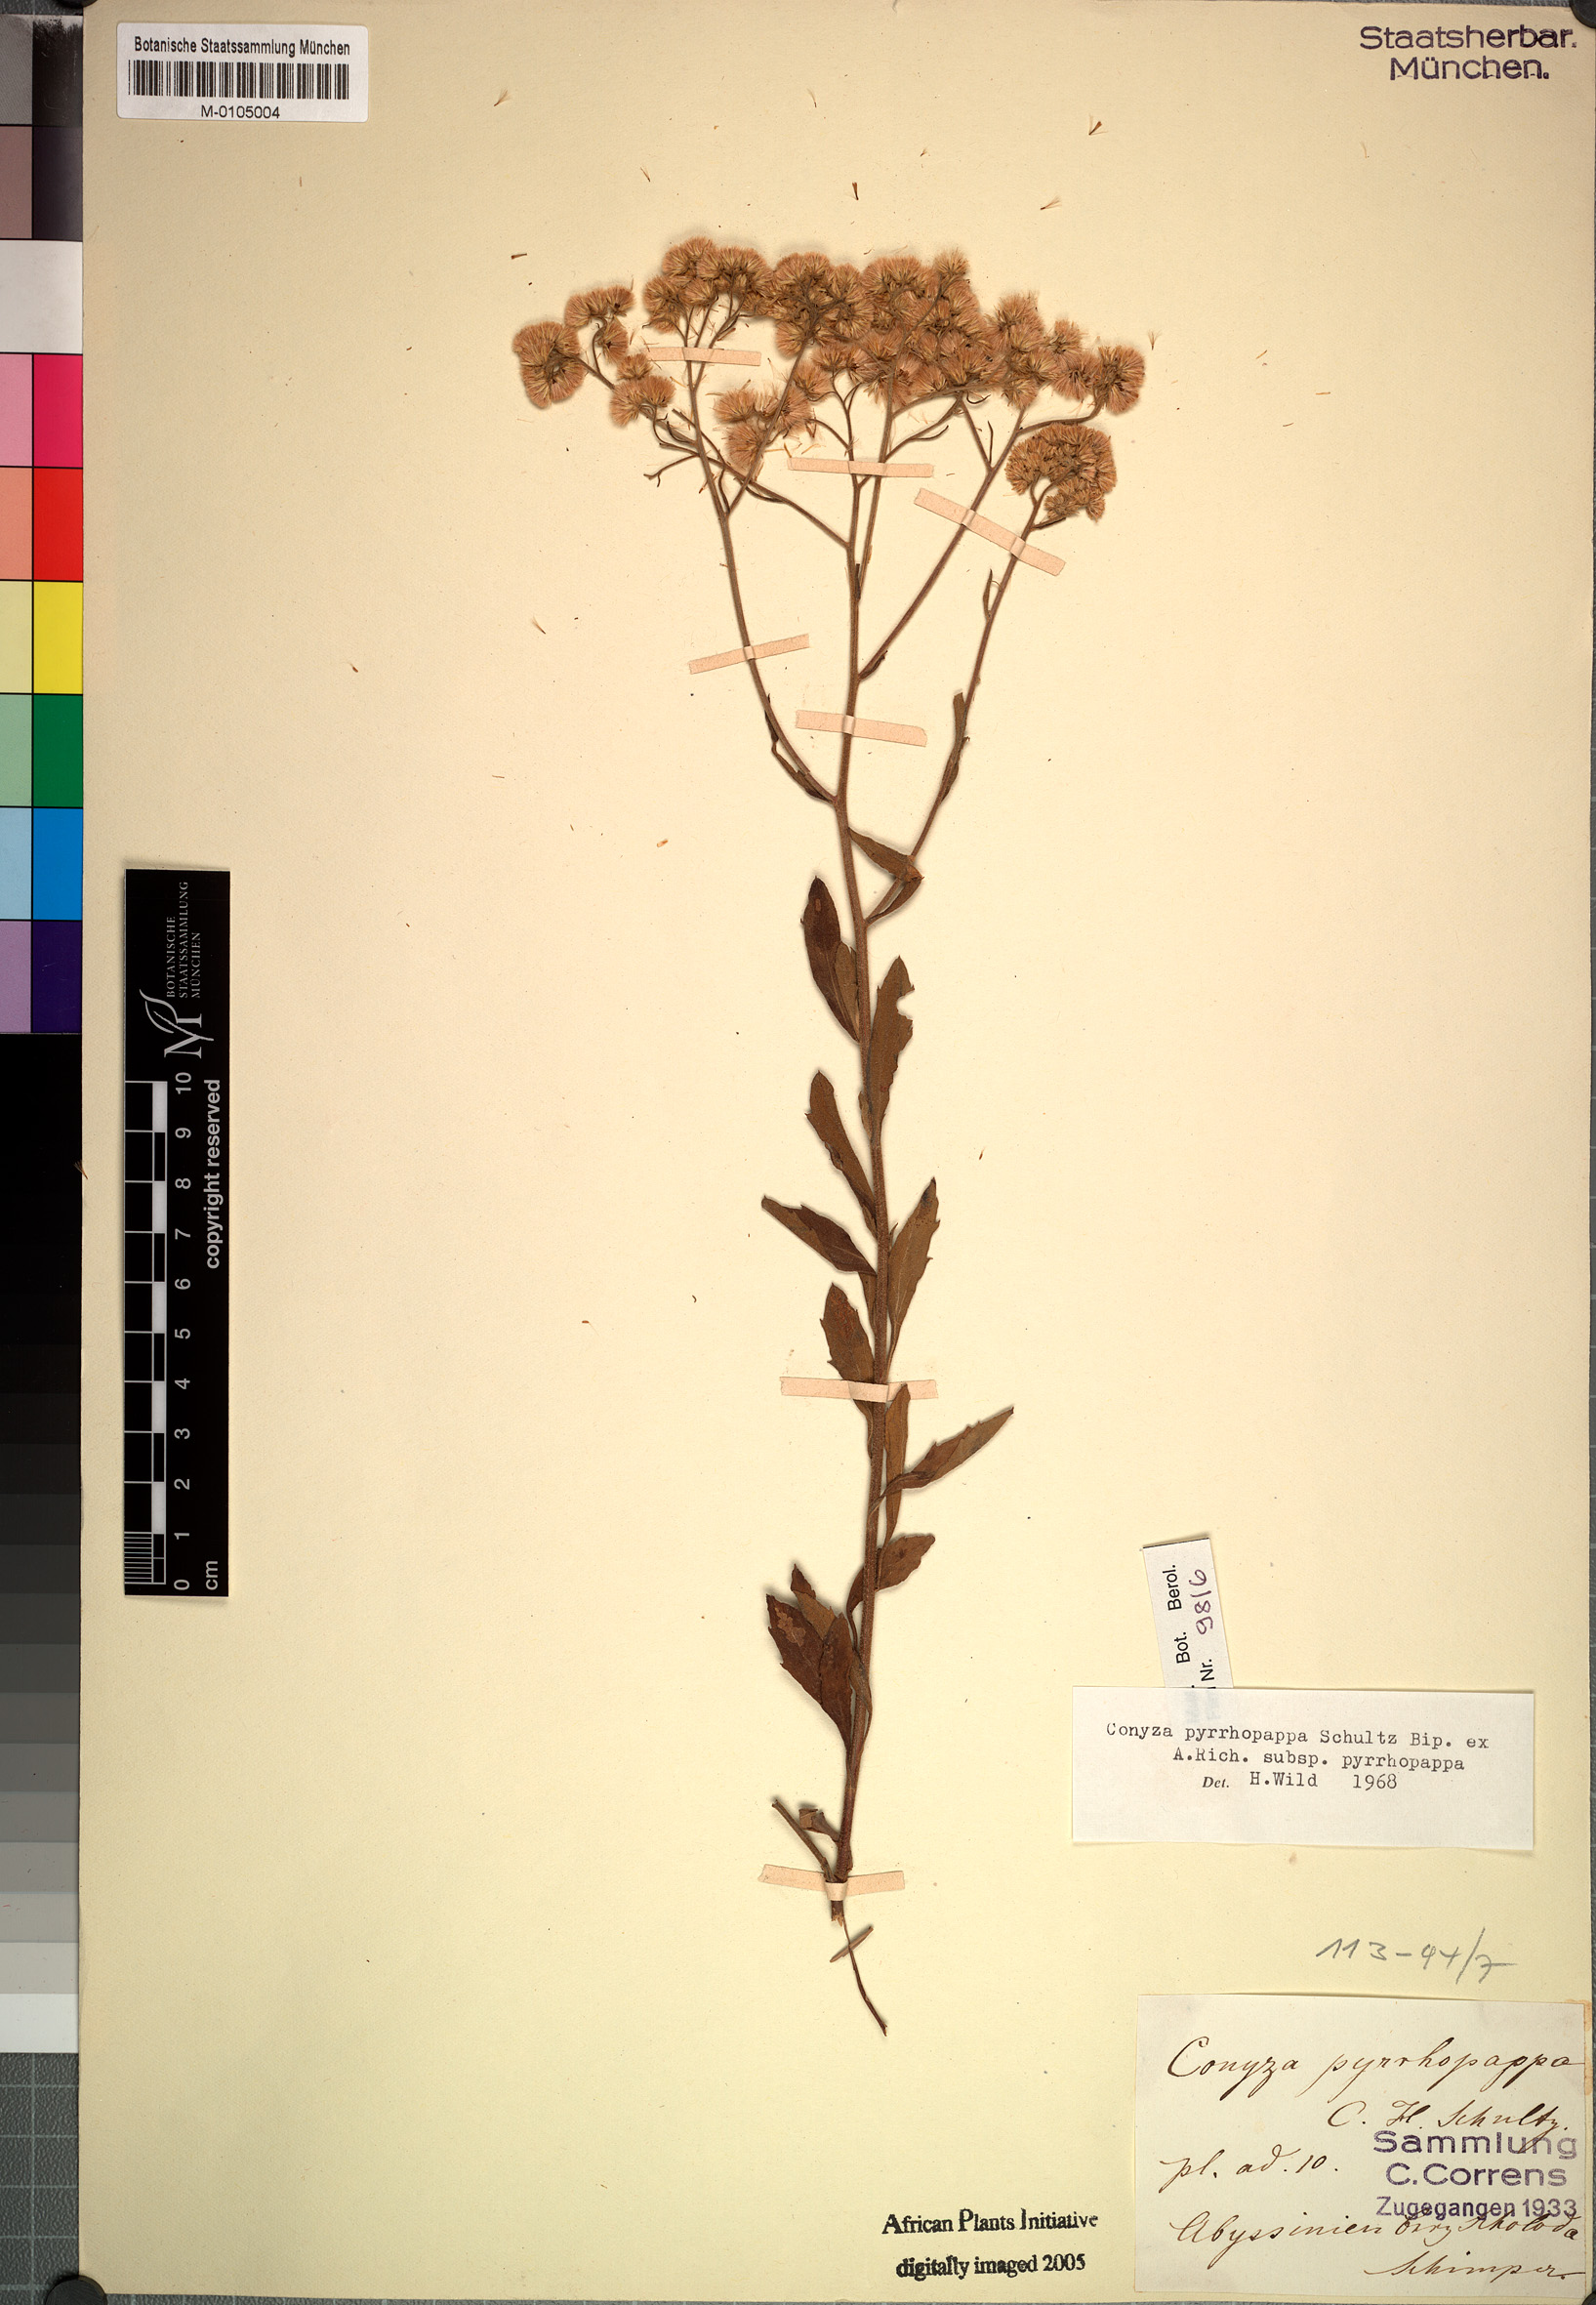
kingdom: Plantae
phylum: Tracheophyta
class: Magnoliopsida
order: Asterales
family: Asteraceae
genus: Microglossa
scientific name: Microglossa pyrrhopappa
